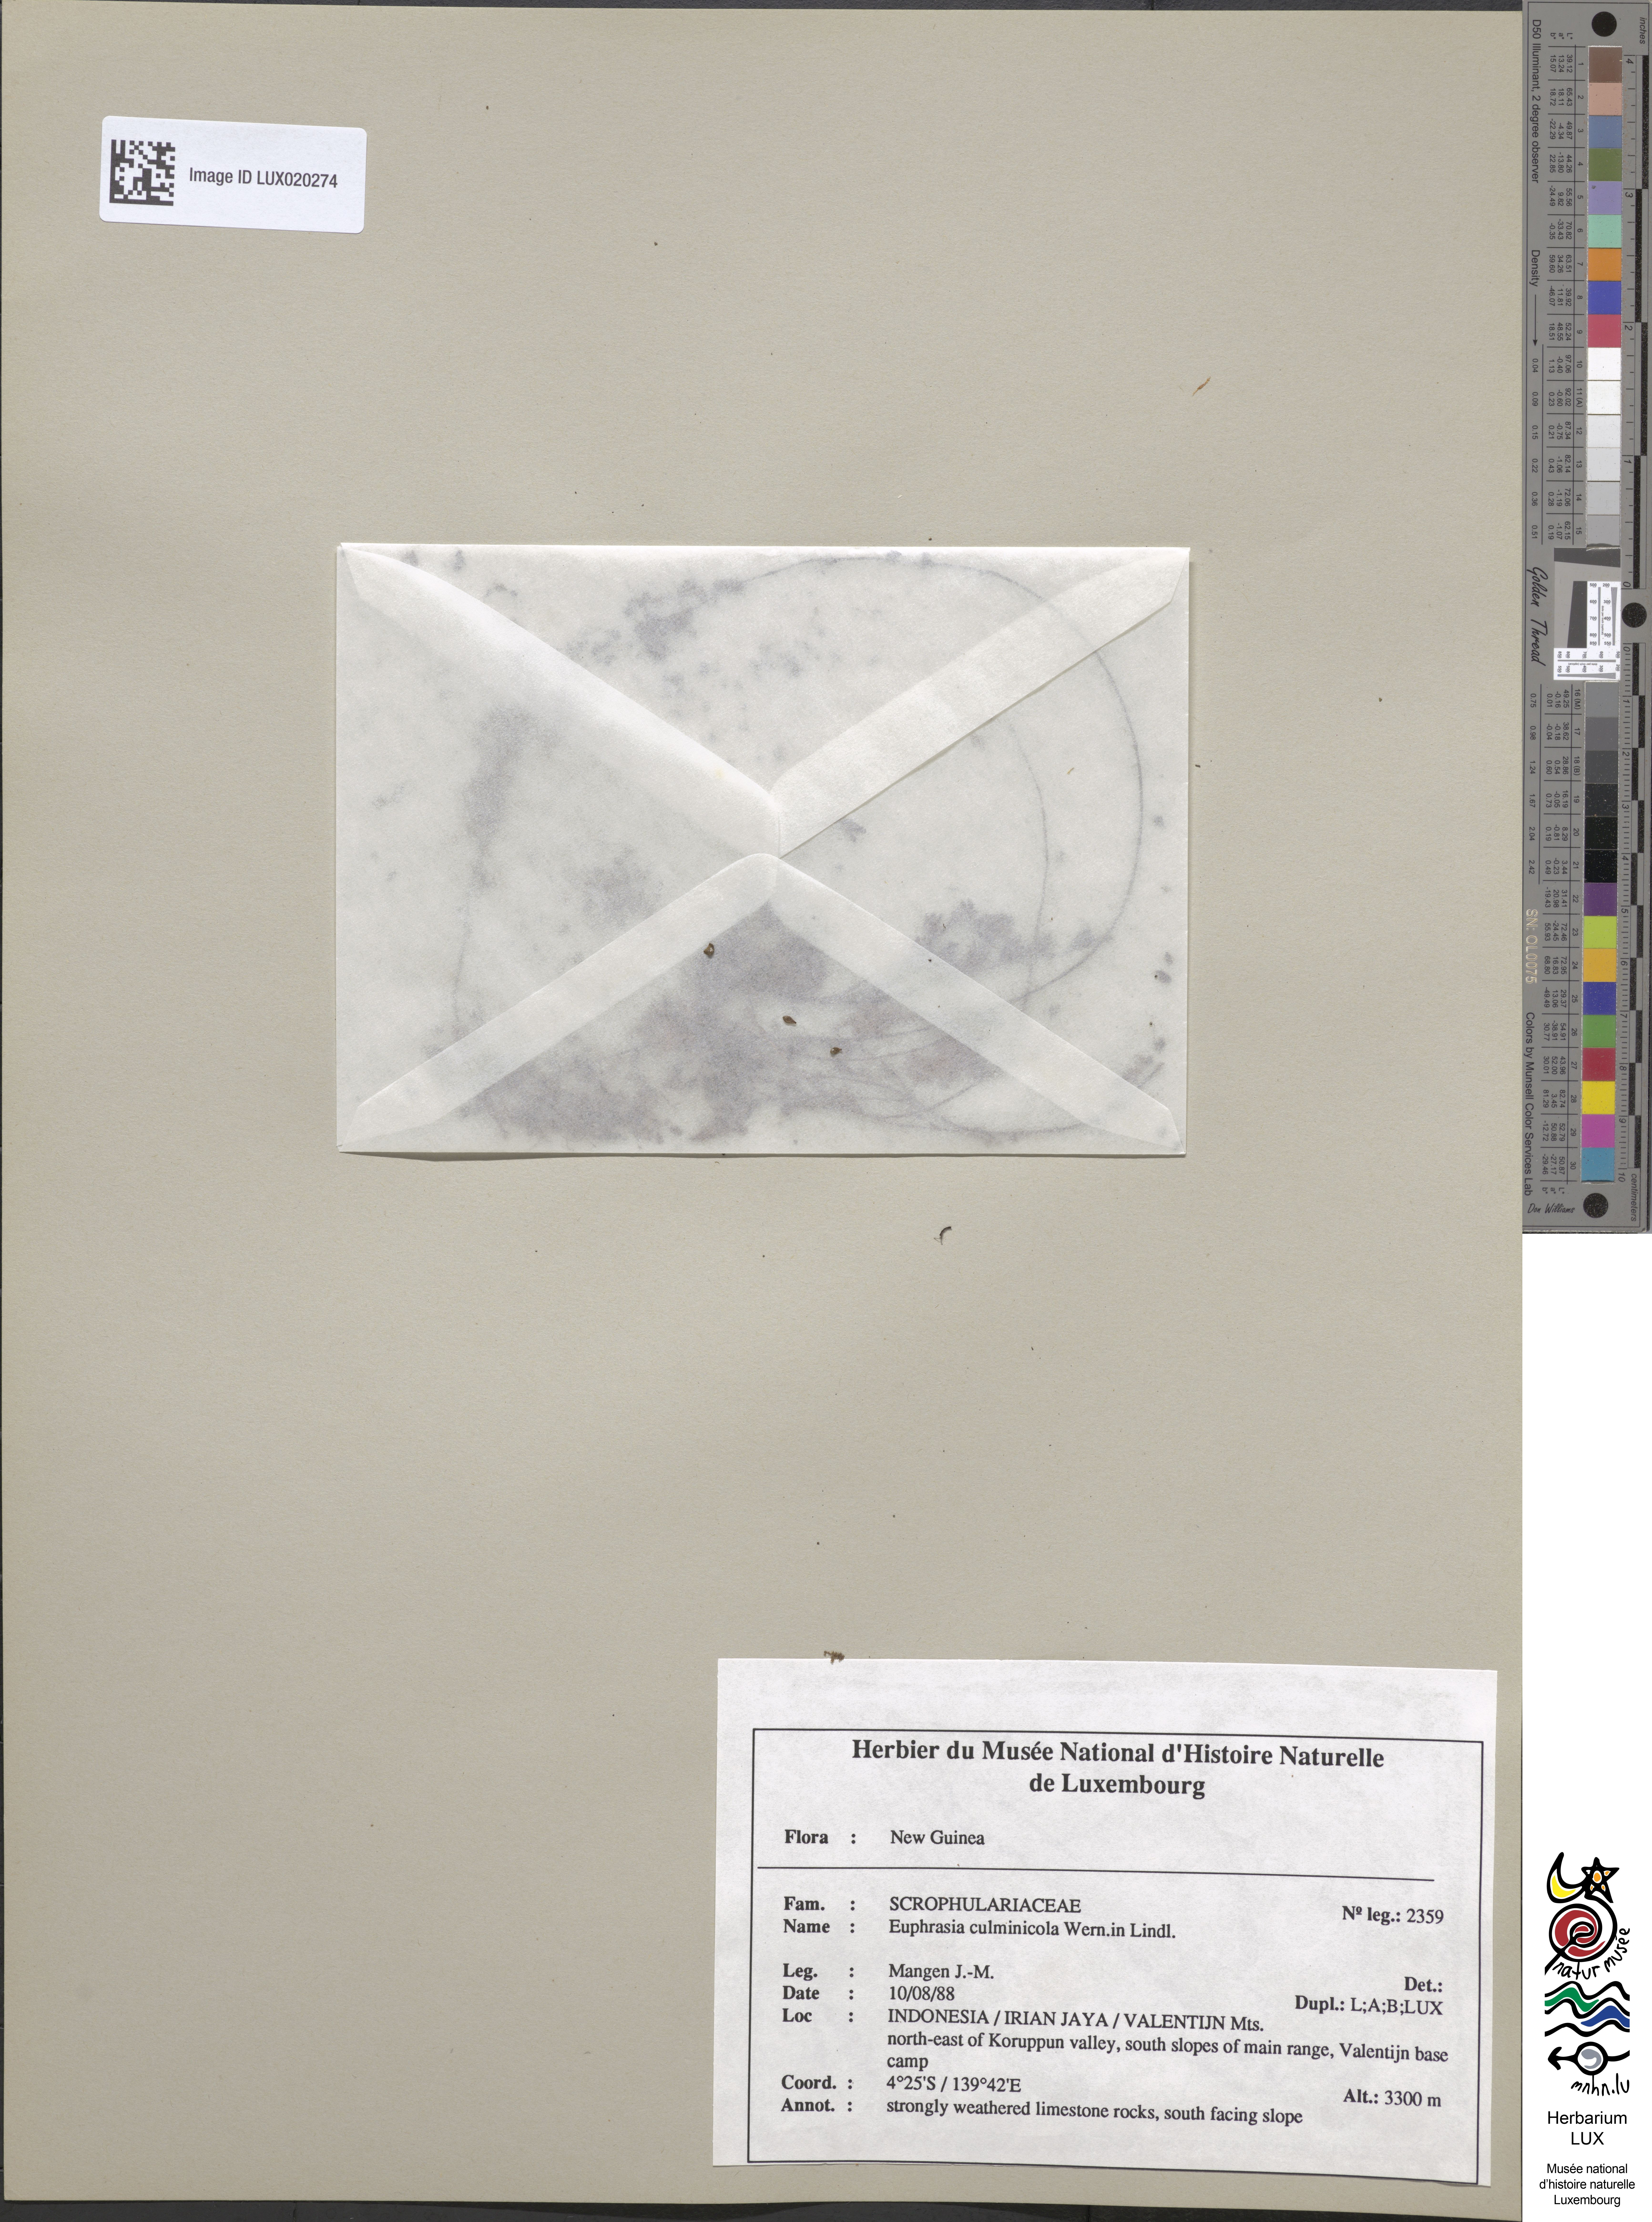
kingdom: Plantae
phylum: Tracheophyta
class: Magnoliopsida
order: Lamiales
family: Orobanchaceae
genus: Euphrasia
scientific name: Euphrasia culminicola
